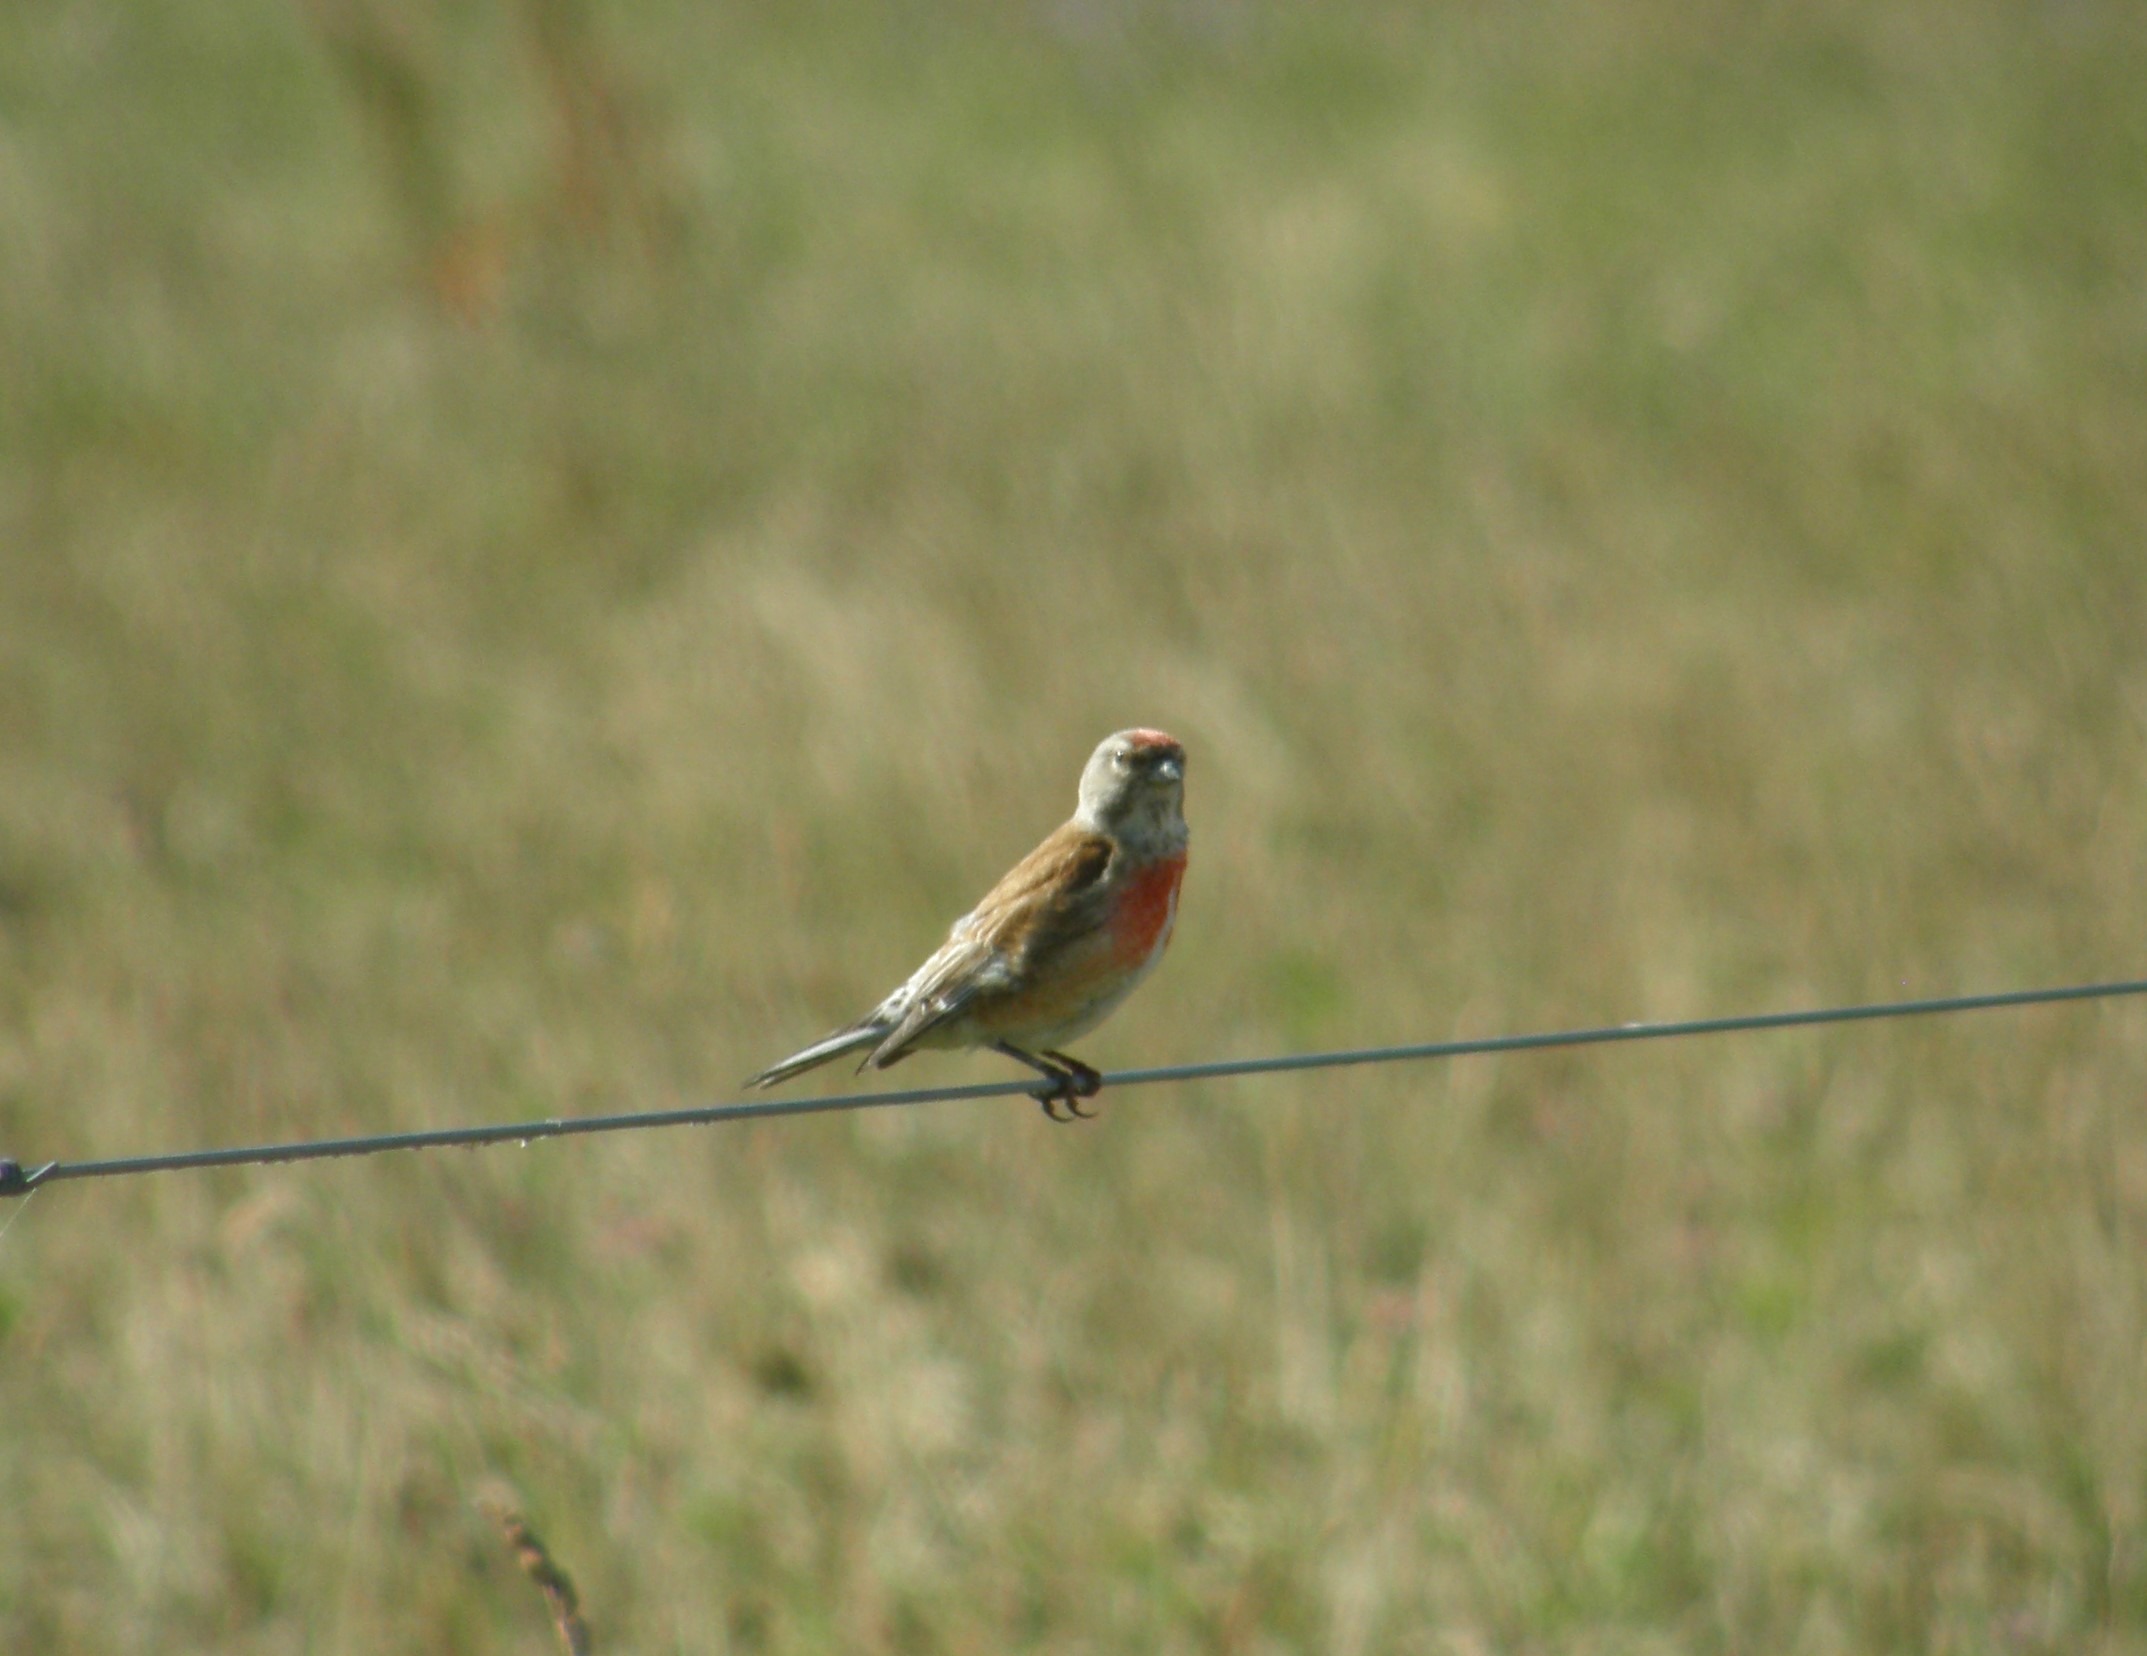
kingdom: Animalia
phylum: Chordata
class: Aves
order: Passeriformes
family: Fringillidae
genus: Linaria
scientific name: Linaria cannabina
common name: Tornirisk
